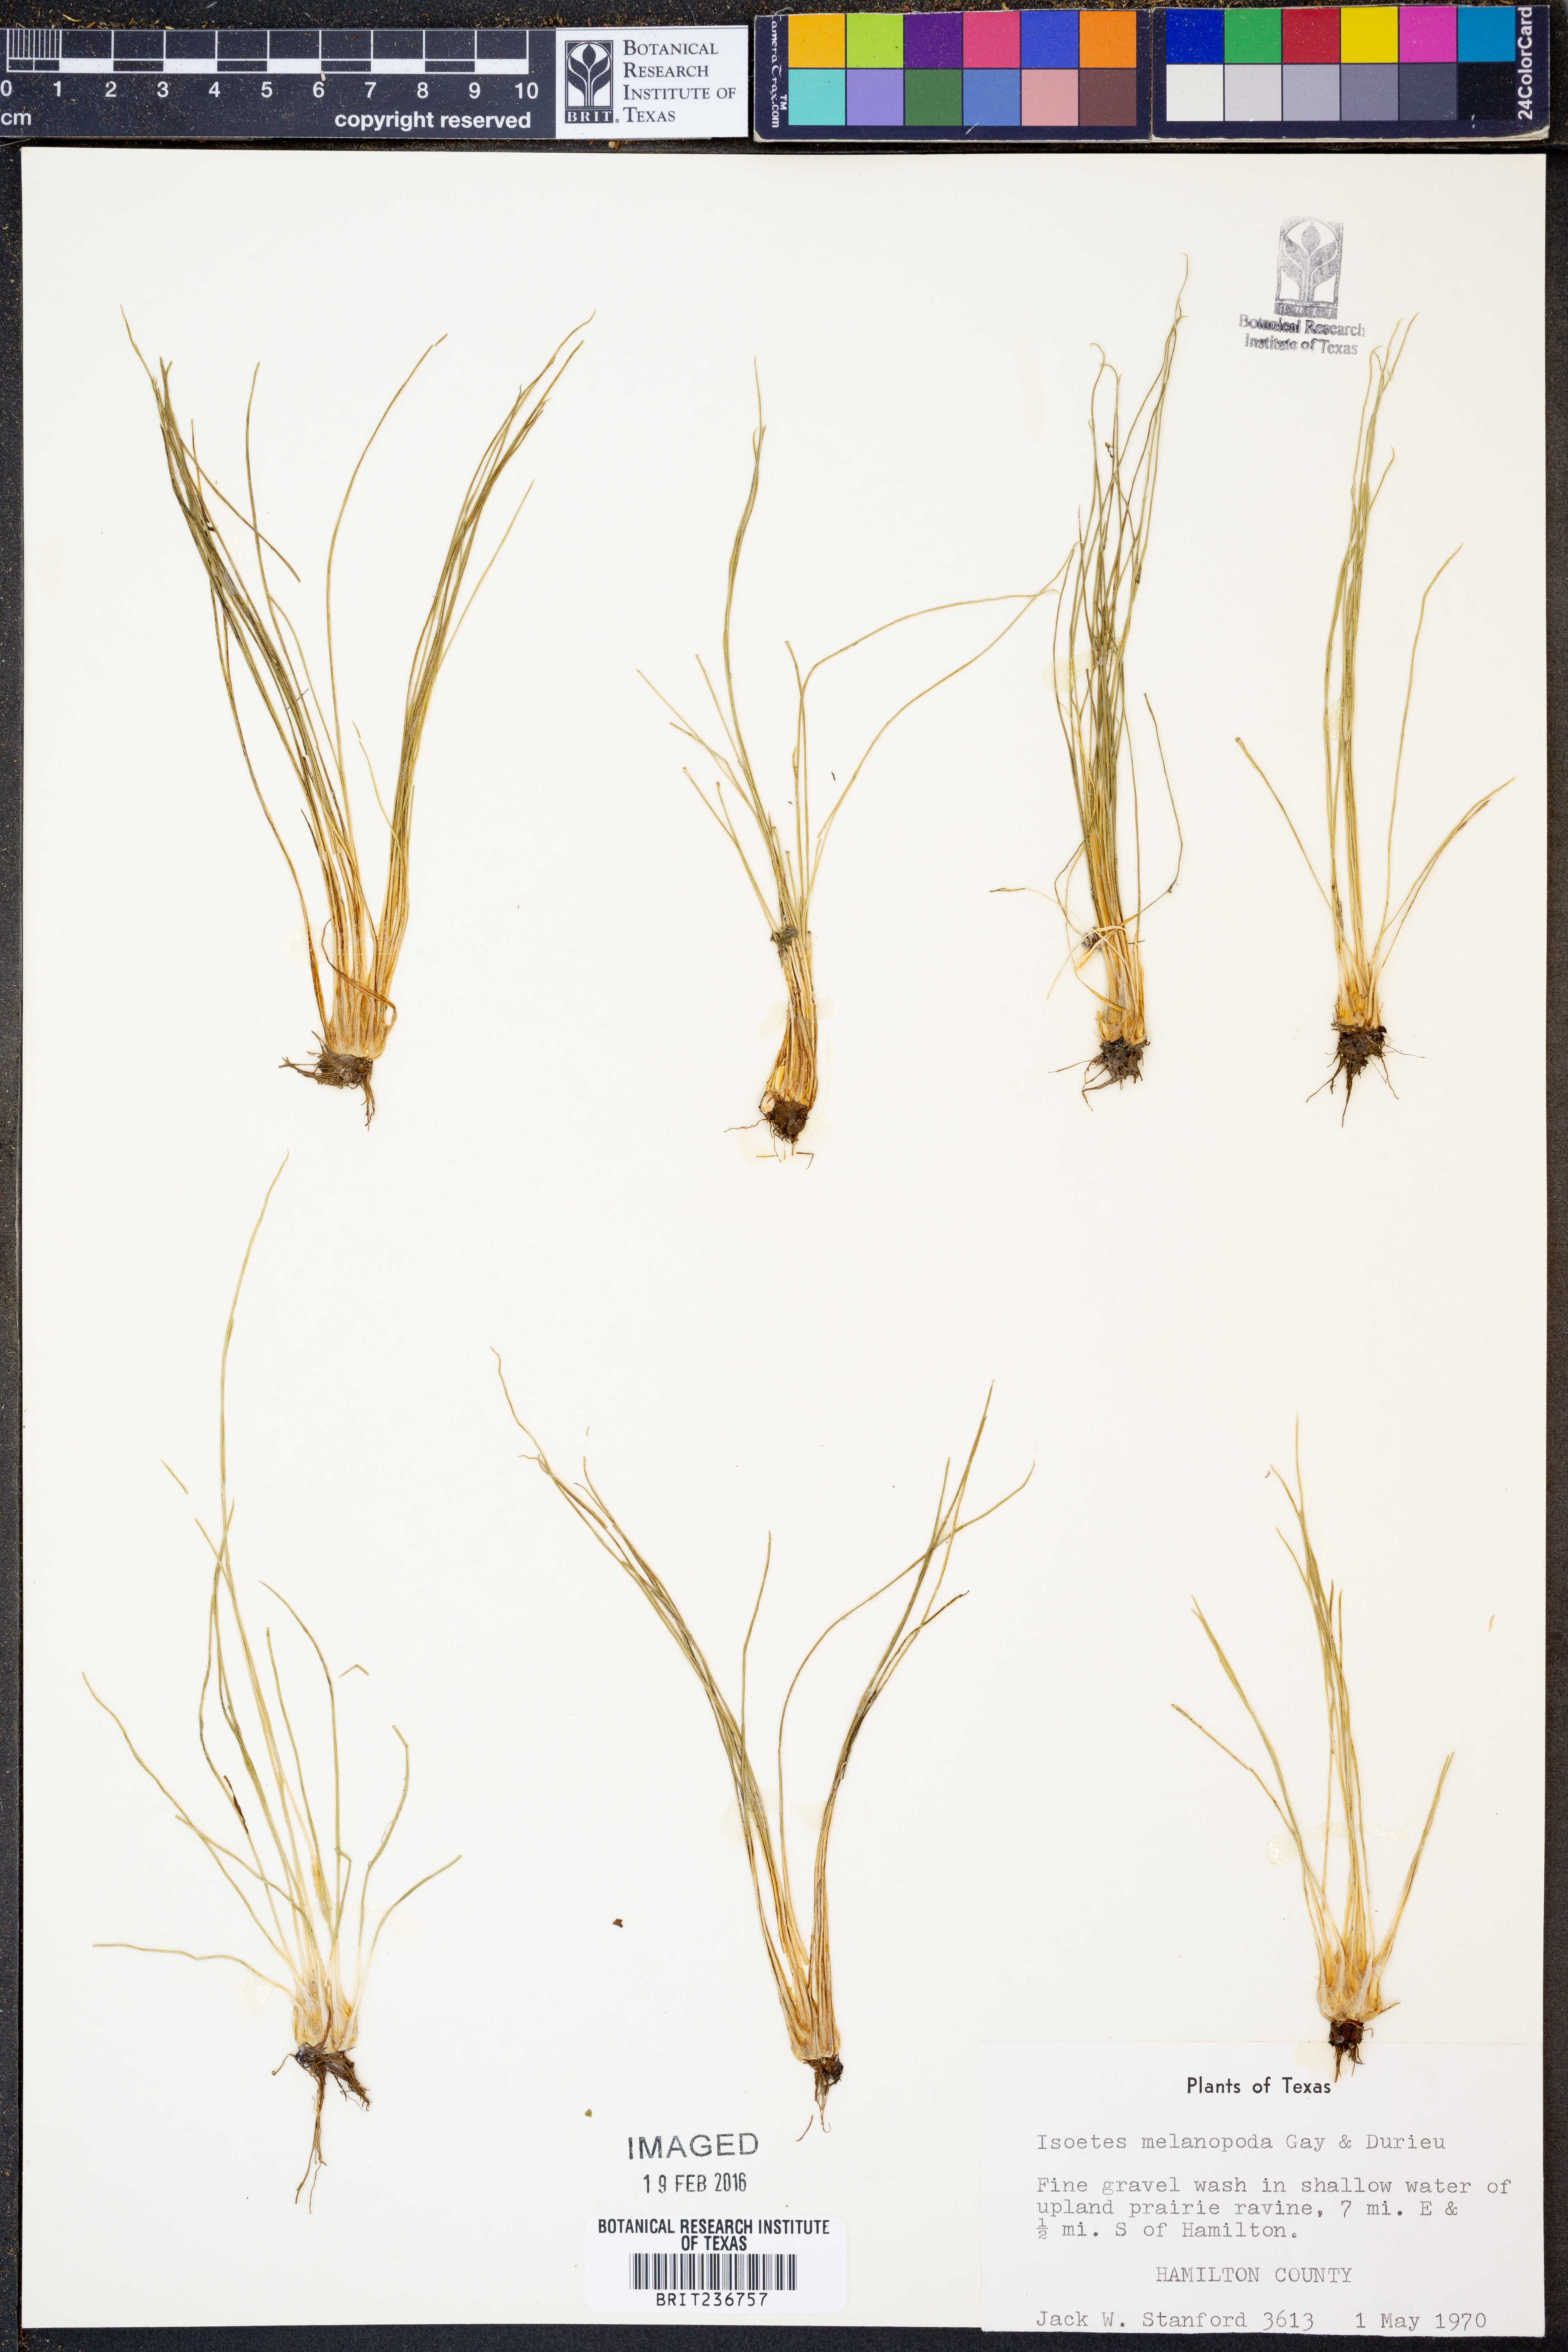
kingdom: Plantae
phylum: Tracheophyta
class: Lycopodiopsida
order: Isoetales
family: Isoetaceae
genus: Isoetes
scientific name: Isoetes melanopoda
